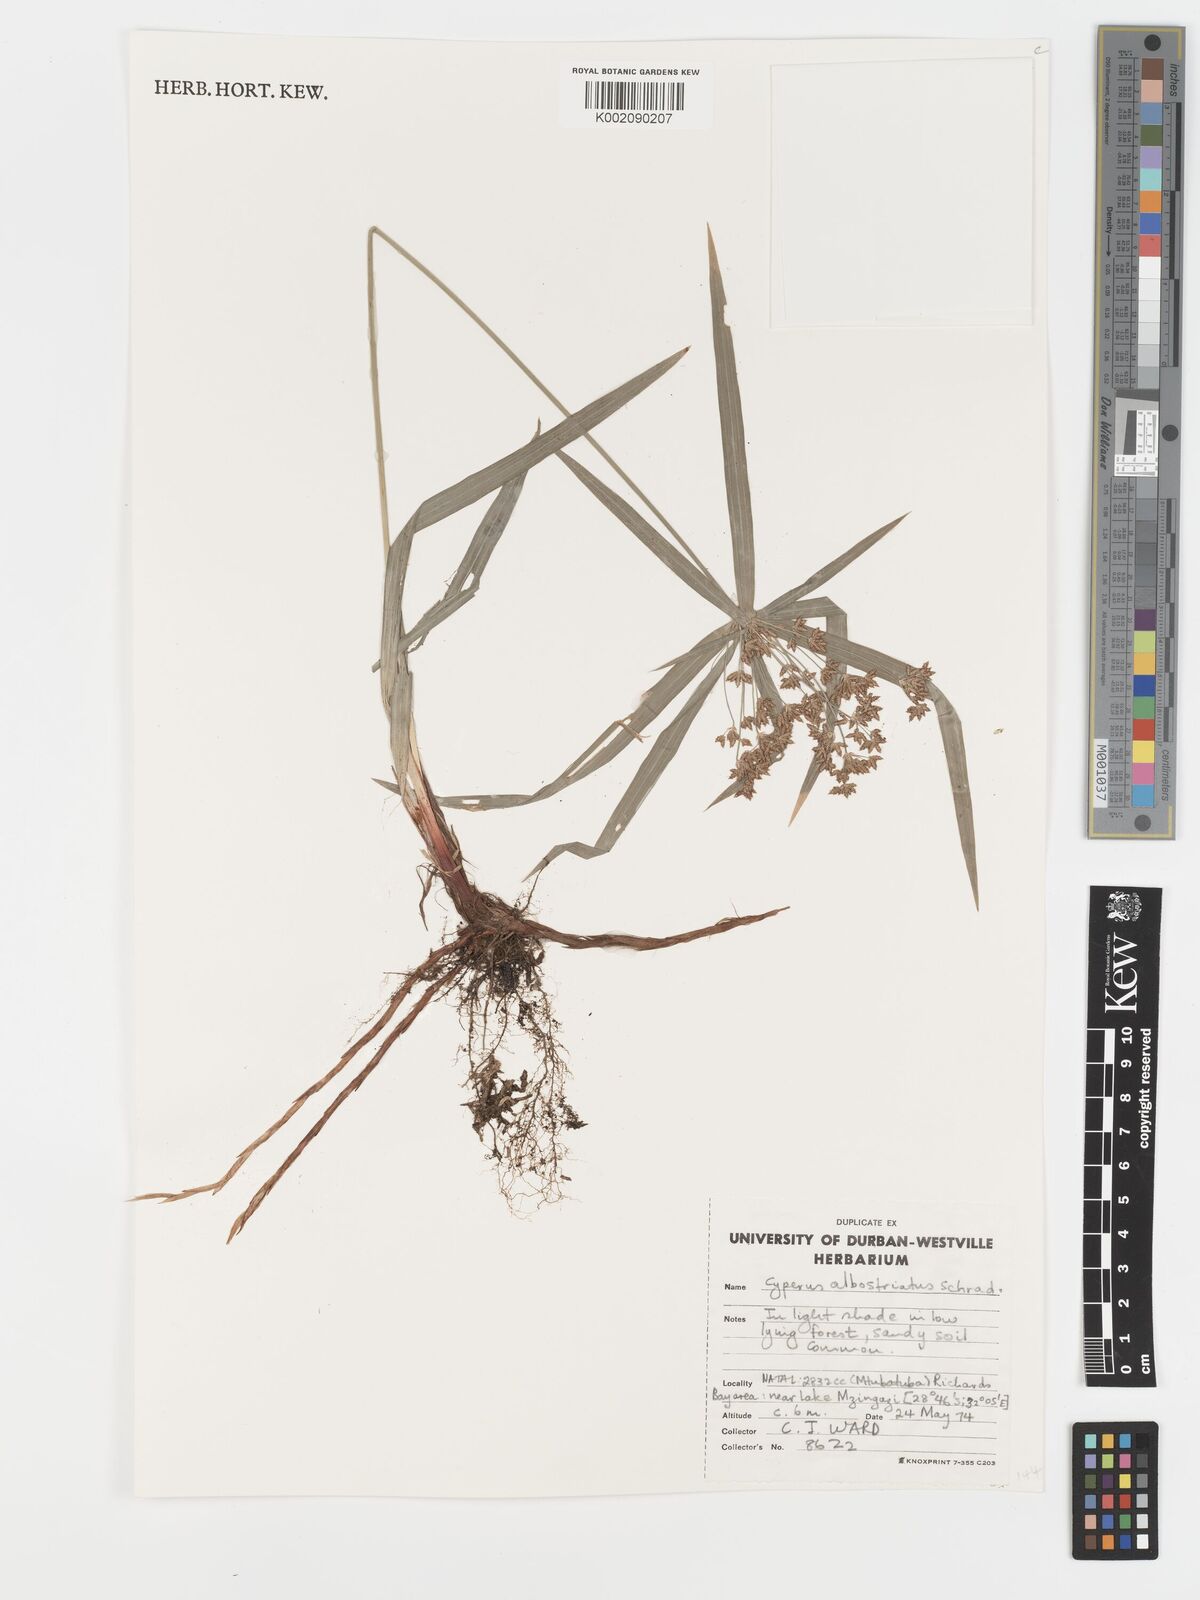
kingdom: Plantae
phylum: Tracheophyta
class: Liliopsida
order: Poales
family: Cyperaceae
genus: Cyperus
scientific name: Cyperus albostriatus
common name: Dwarf umbrella-grass
